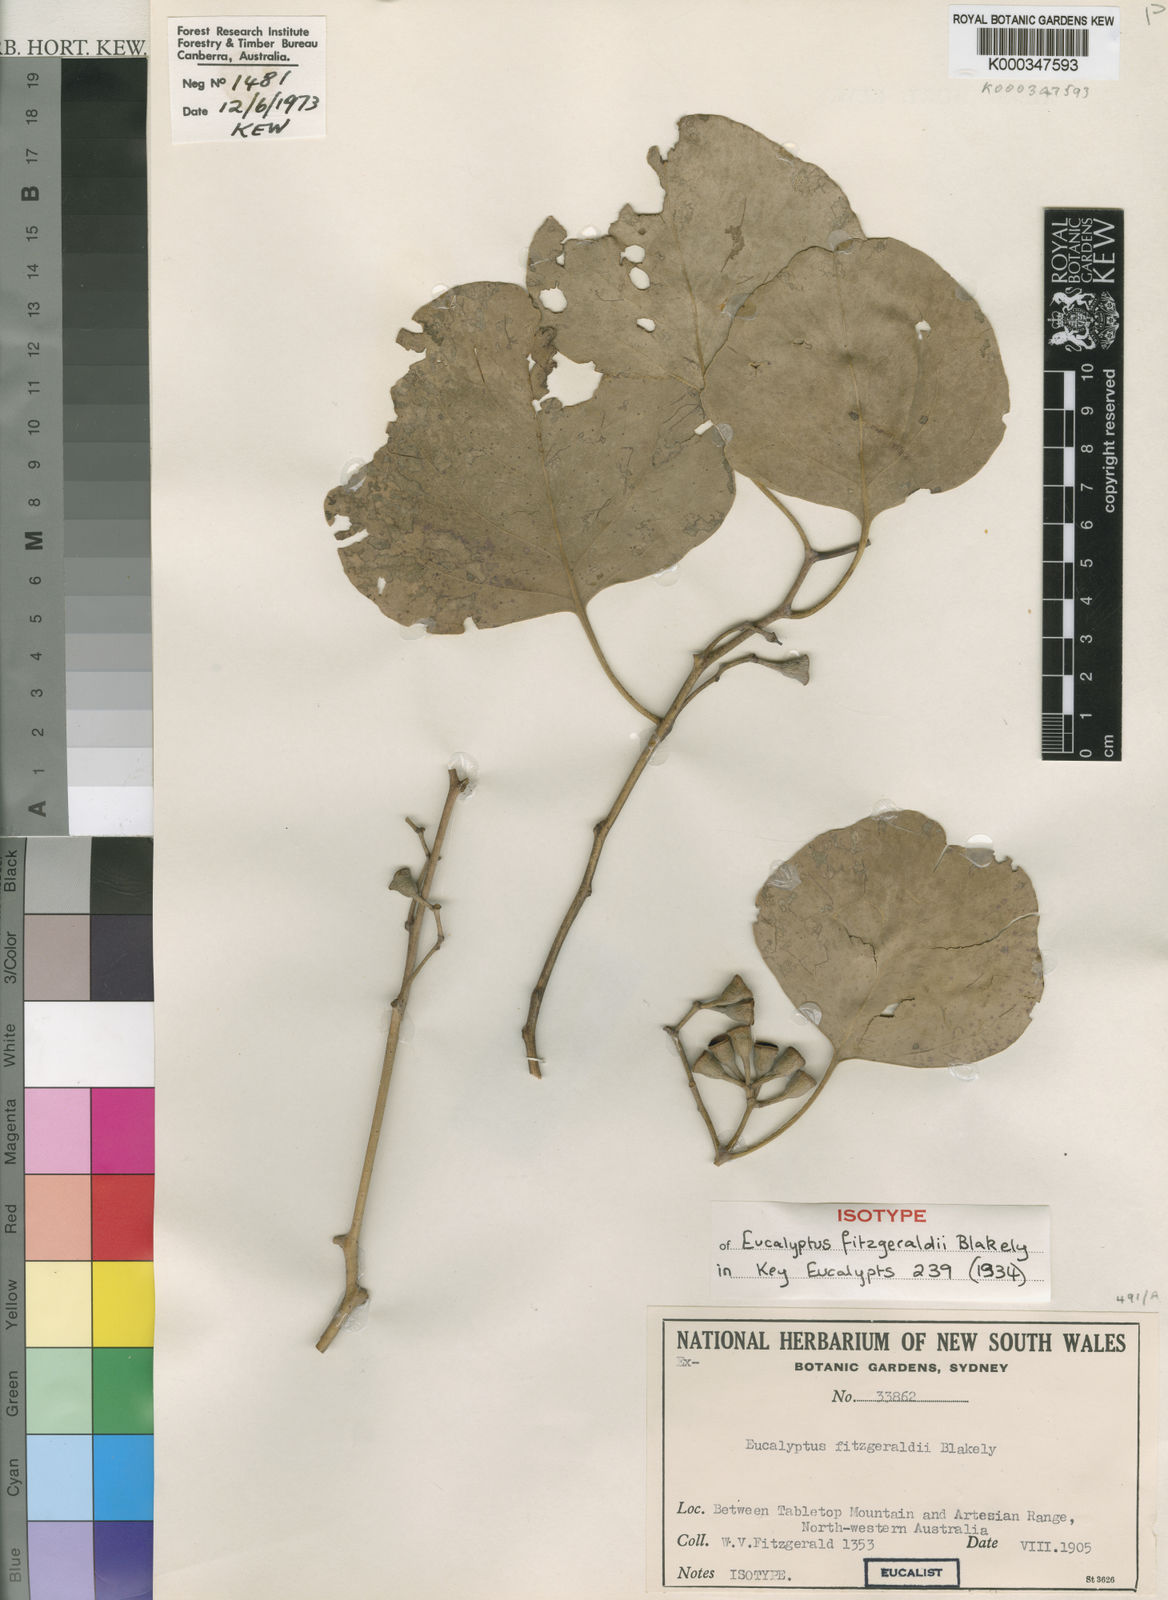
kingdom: Plantae
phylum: Tracheophyta
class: Magnoliopsida
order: Myrtales
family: Myrtaceae
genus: Eucalyptus
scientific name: Eucalyptus fitzgeraldii
